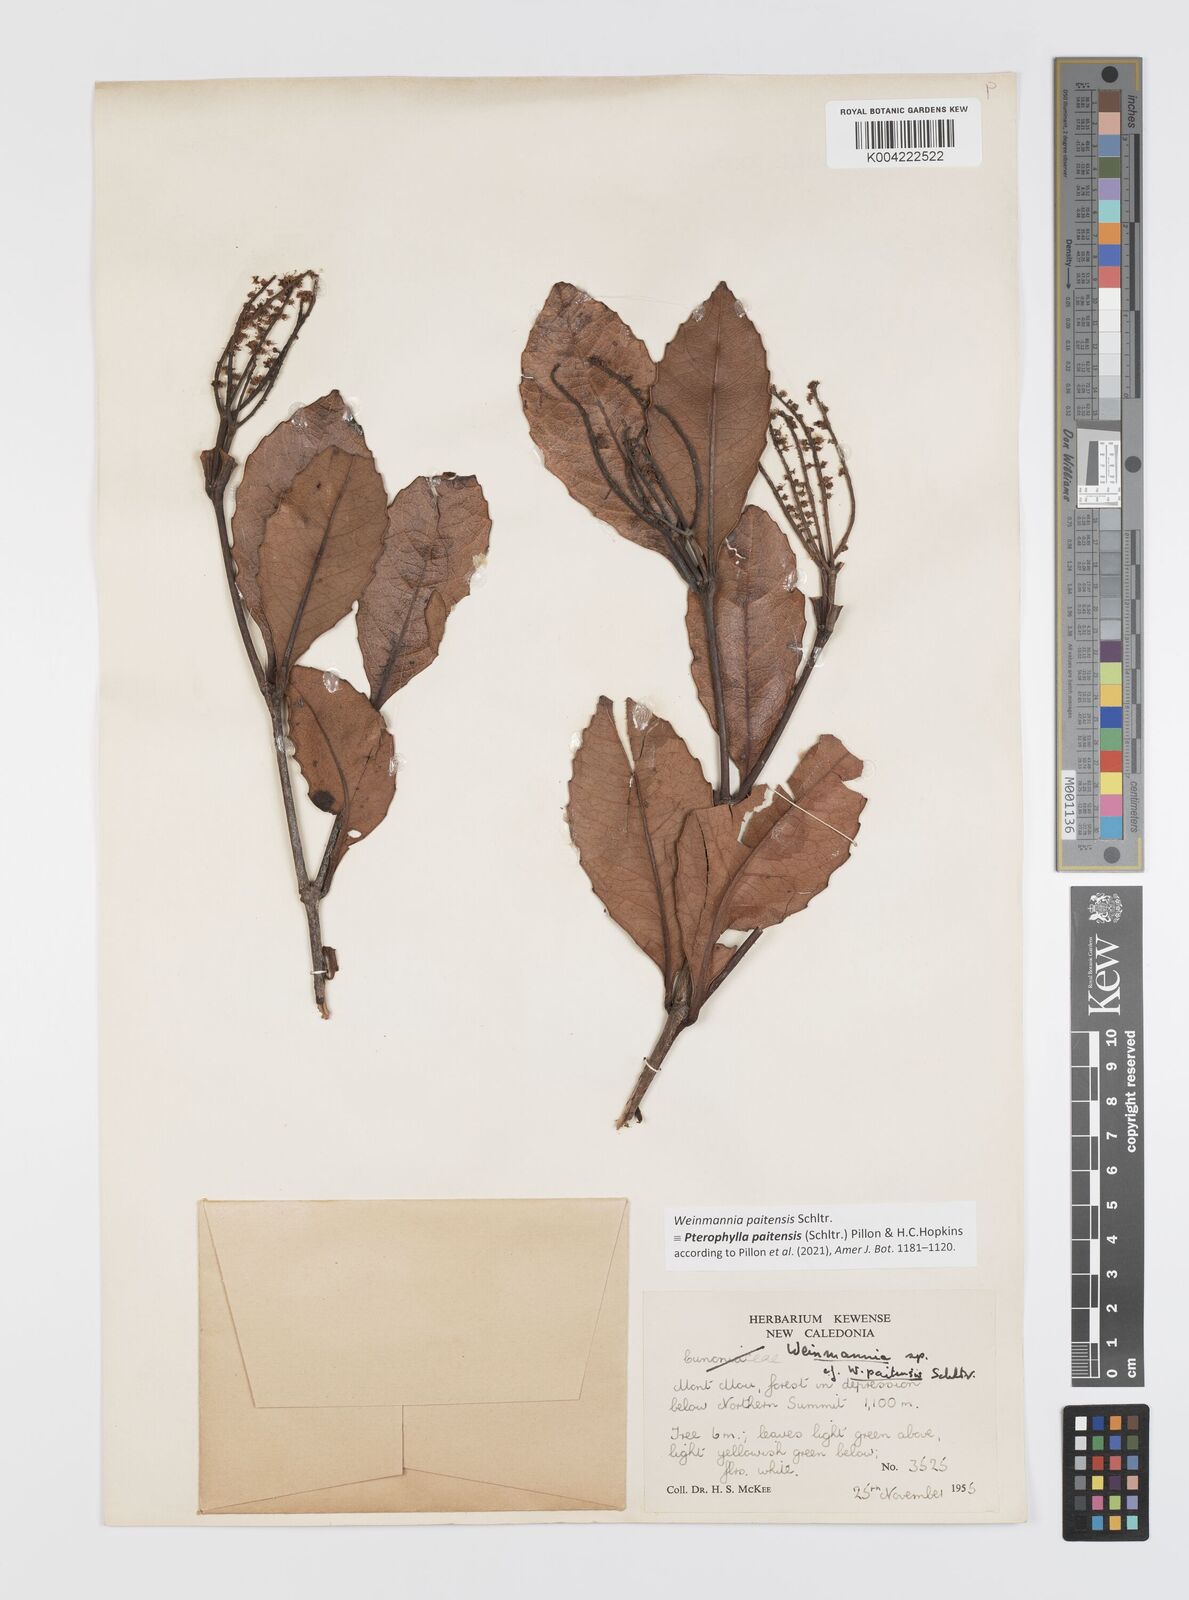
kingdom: Plantae
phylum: Tracheophyta
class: Magnoliopsida
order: Oxalidales
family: Cunoniaceae
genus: Pterophylla
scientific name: Pterophylla paitensis
